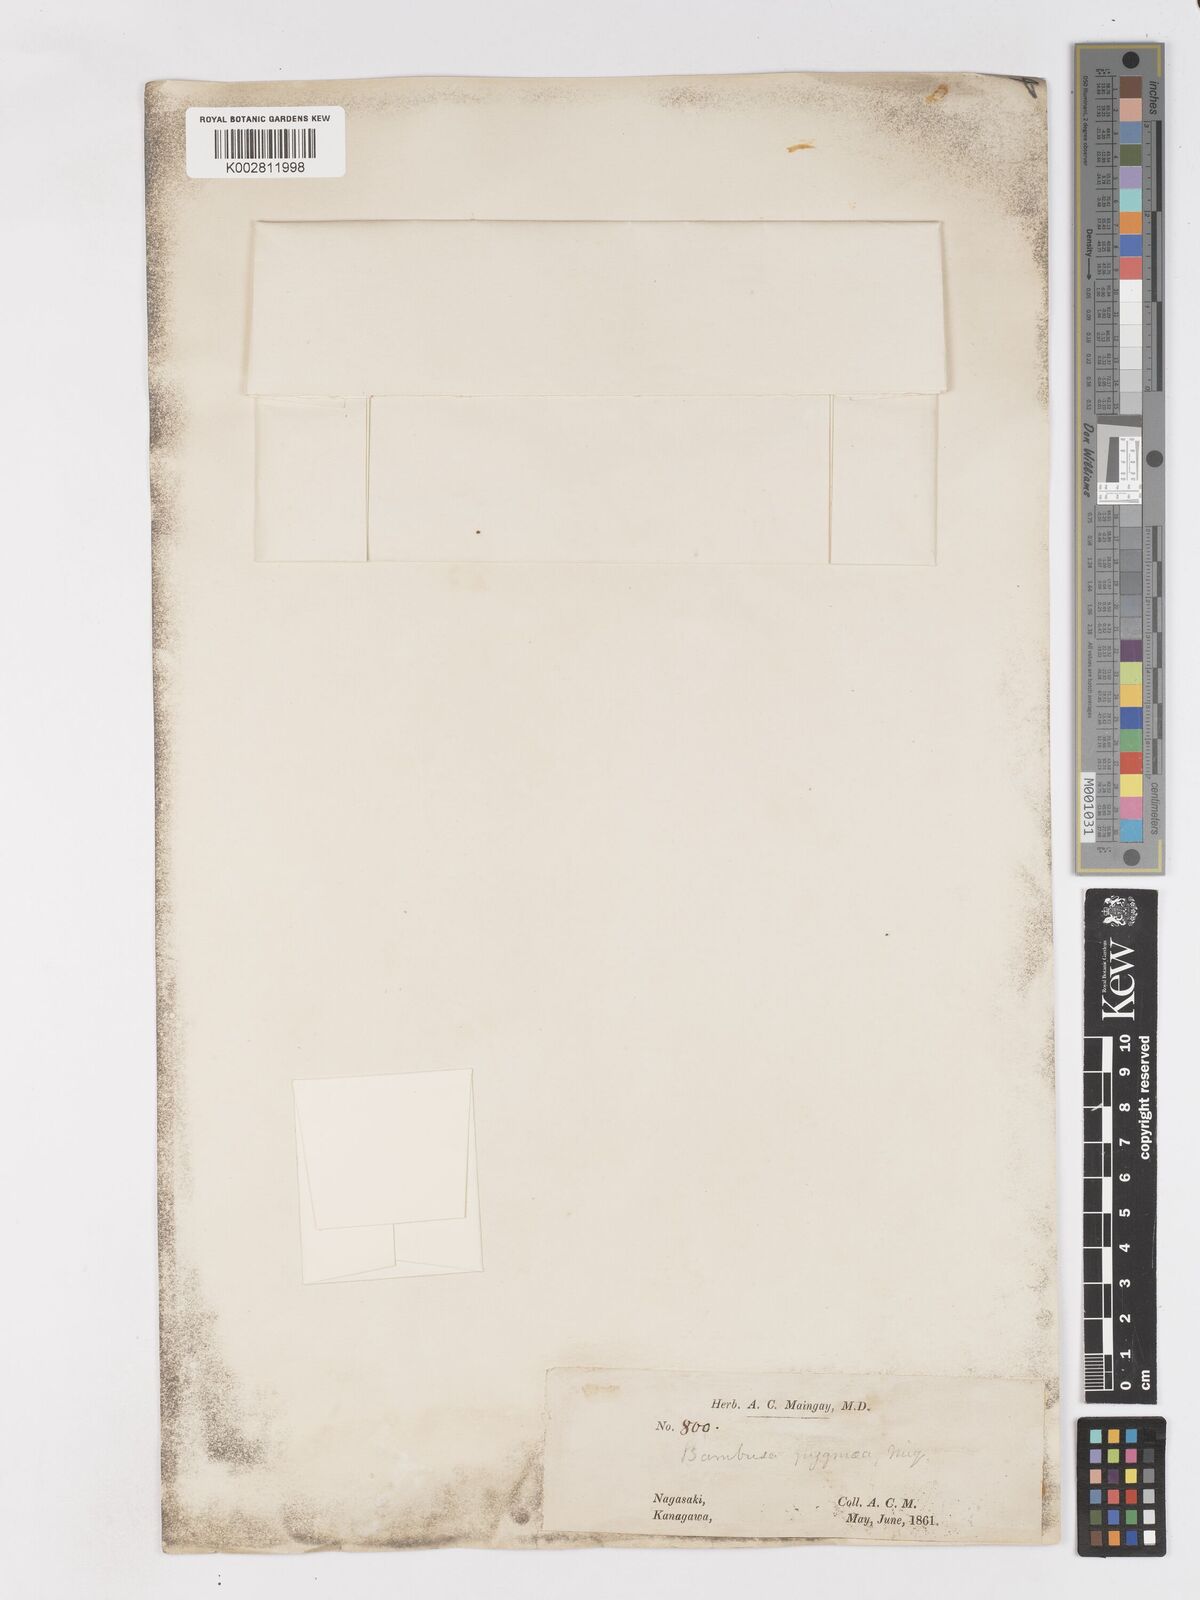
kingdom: Plantae
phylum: Tracheophyta
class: Liliopsida
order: Poales
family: Poaceae
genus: Pleioblastus
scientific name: Pleioblastus variegatus
